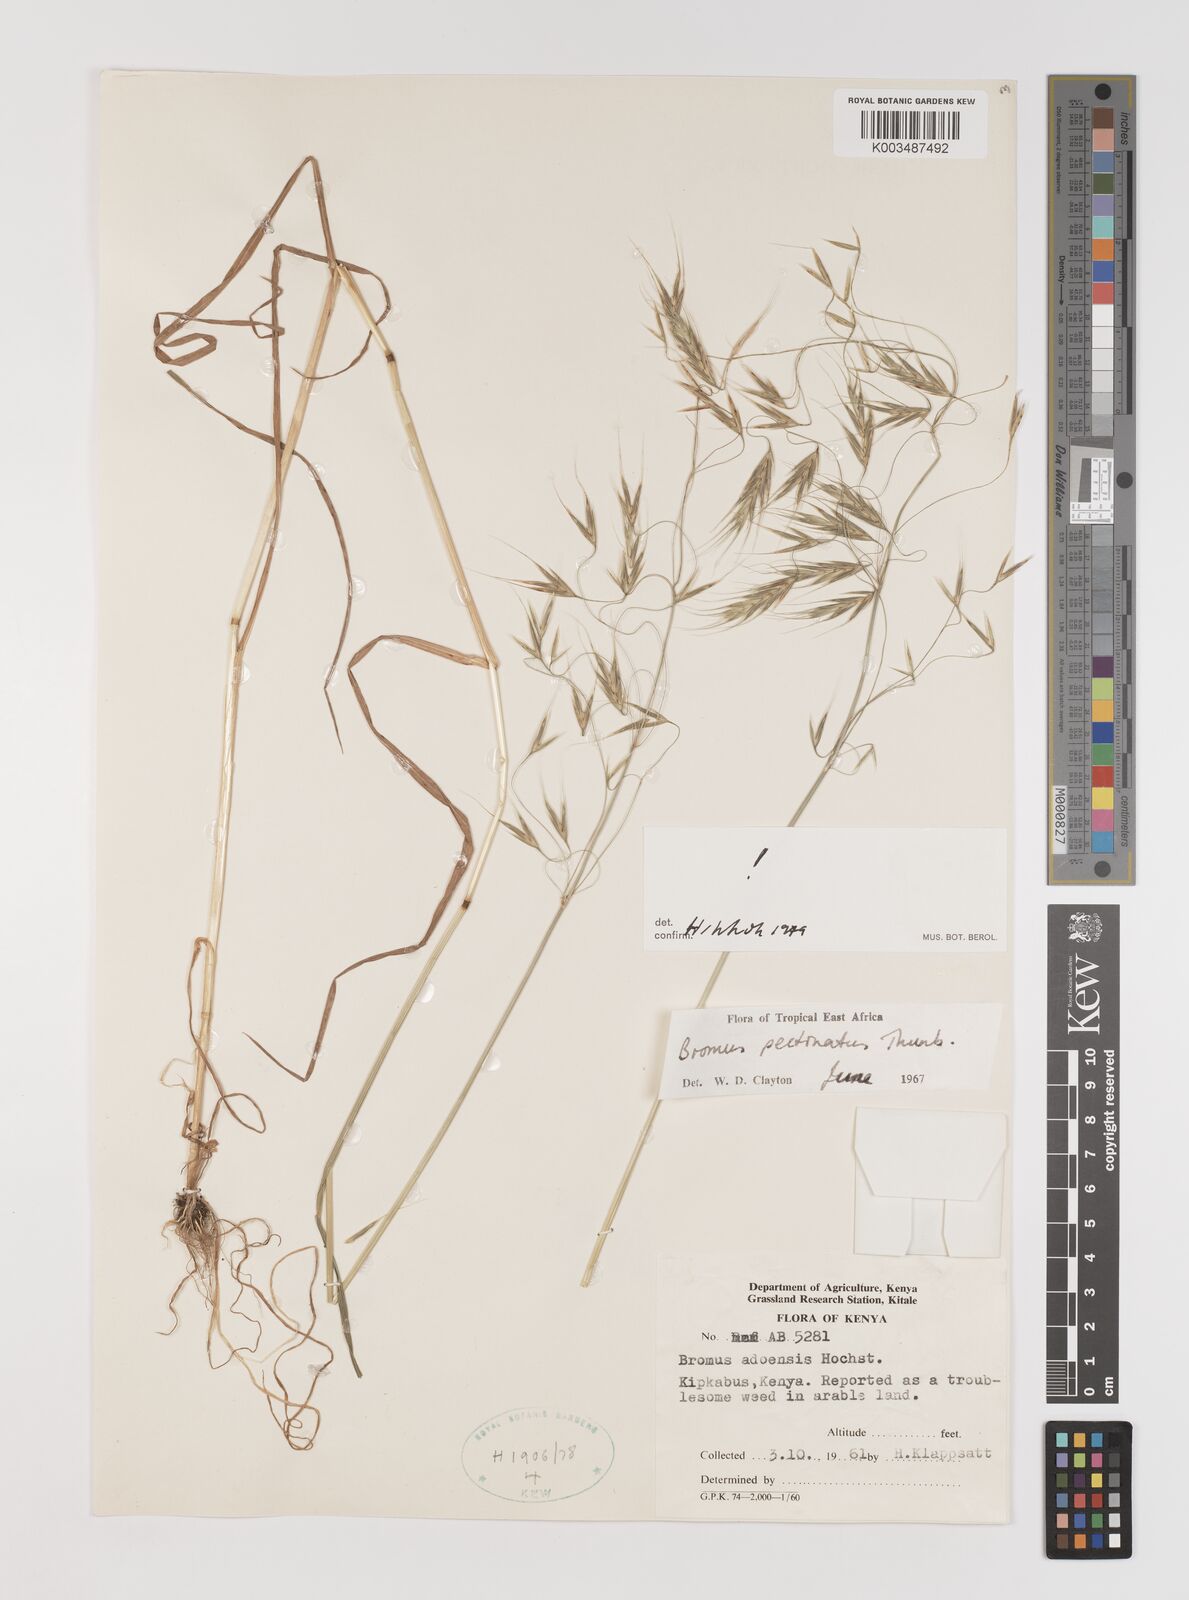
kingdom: Plantae
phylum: Tracheophyta
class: Liliopsida
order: Poales
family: Poaceae
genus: Bromus
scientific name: Bromus pectinatus
